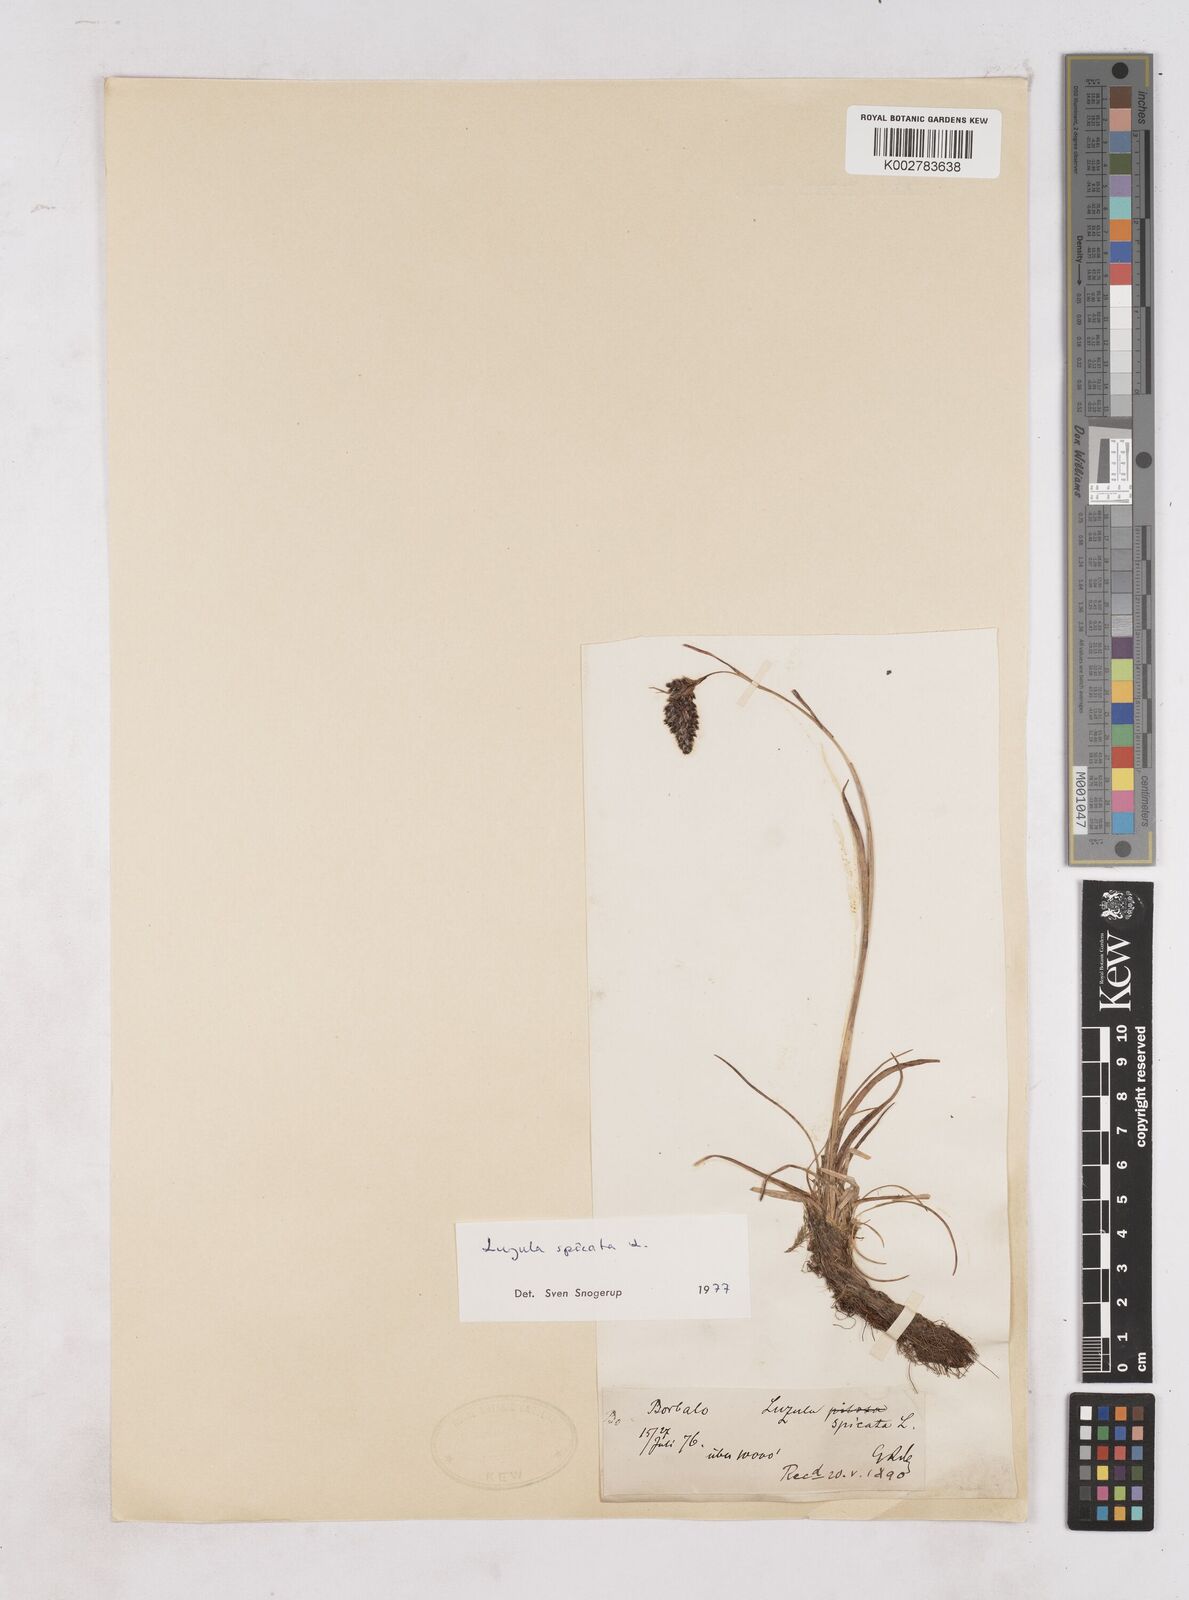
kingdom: Plantae
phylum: Tracheophyta
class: Liliopsida
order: Poales
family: Juncaceae
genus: Luzula
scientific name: Luzula spicata
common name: Spiked wood-rush
